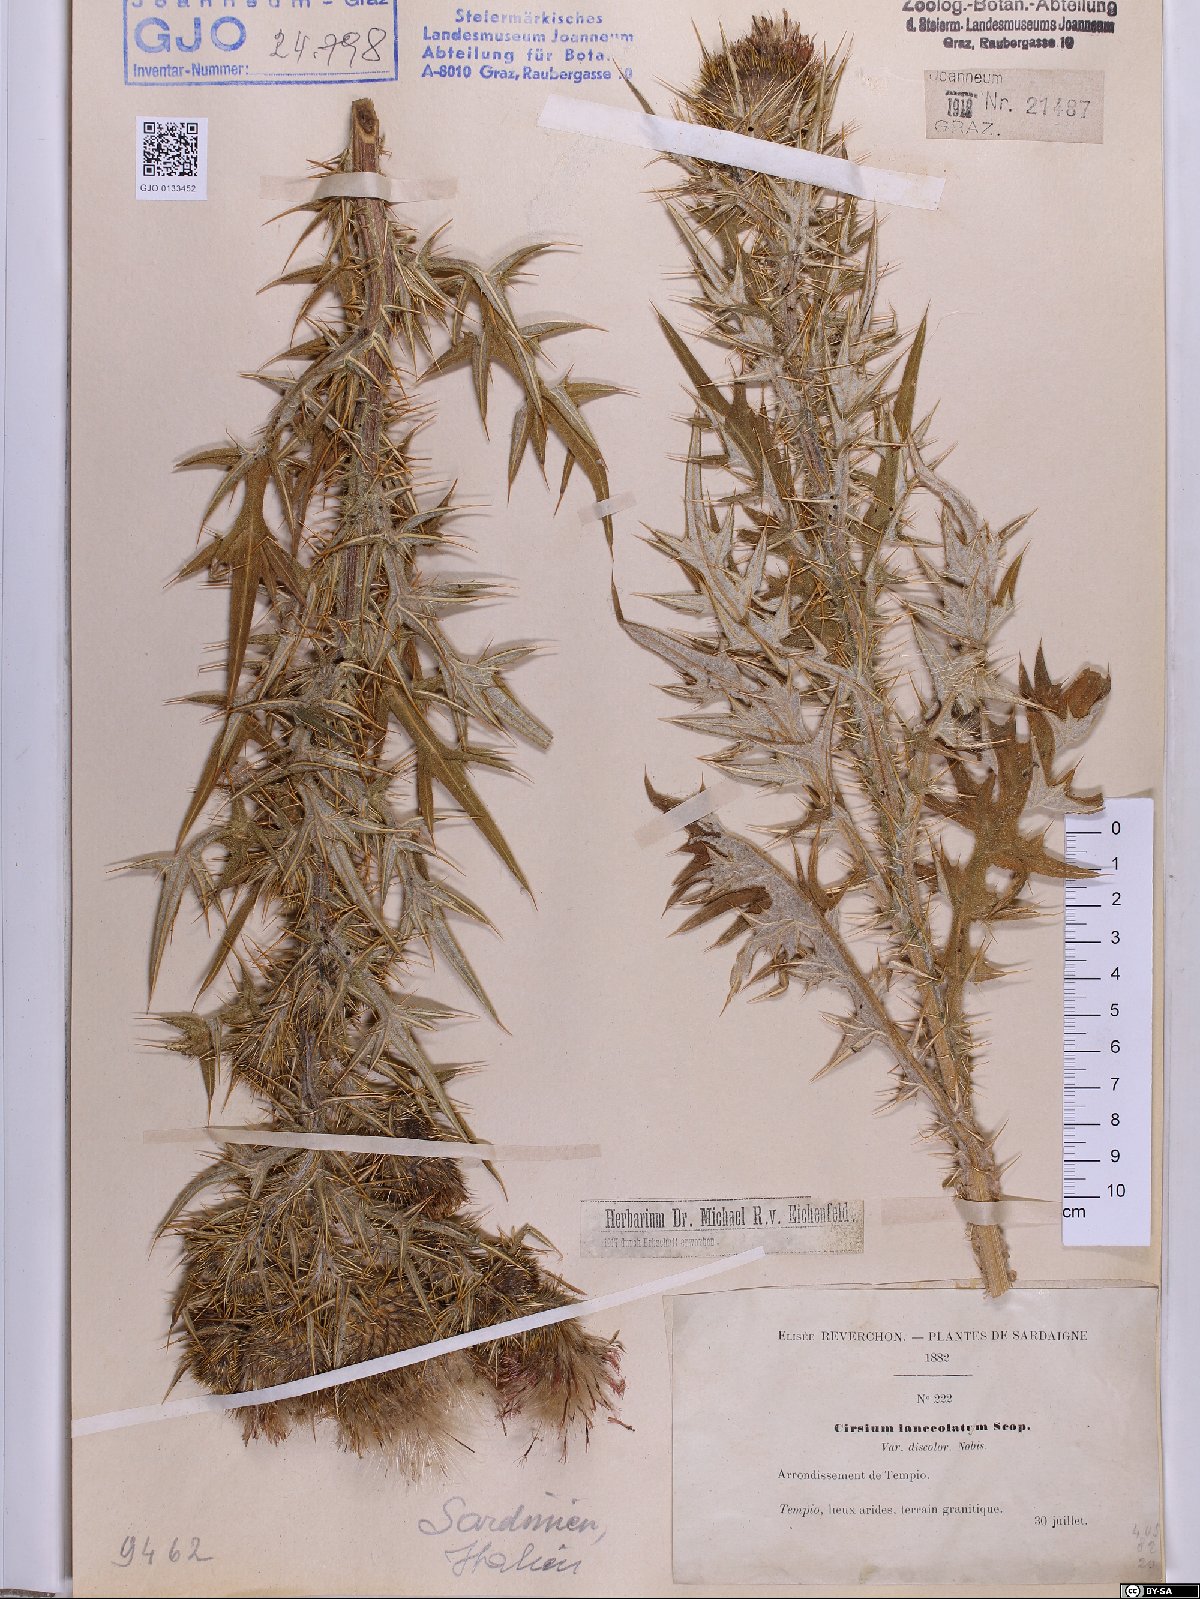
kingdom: Plantae
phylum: Tracheophyta
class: Magnoliopsida
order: Asterales
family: Asteraceae
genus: Cirsium
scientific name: Cirsium vulgare
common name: Bull thistle
